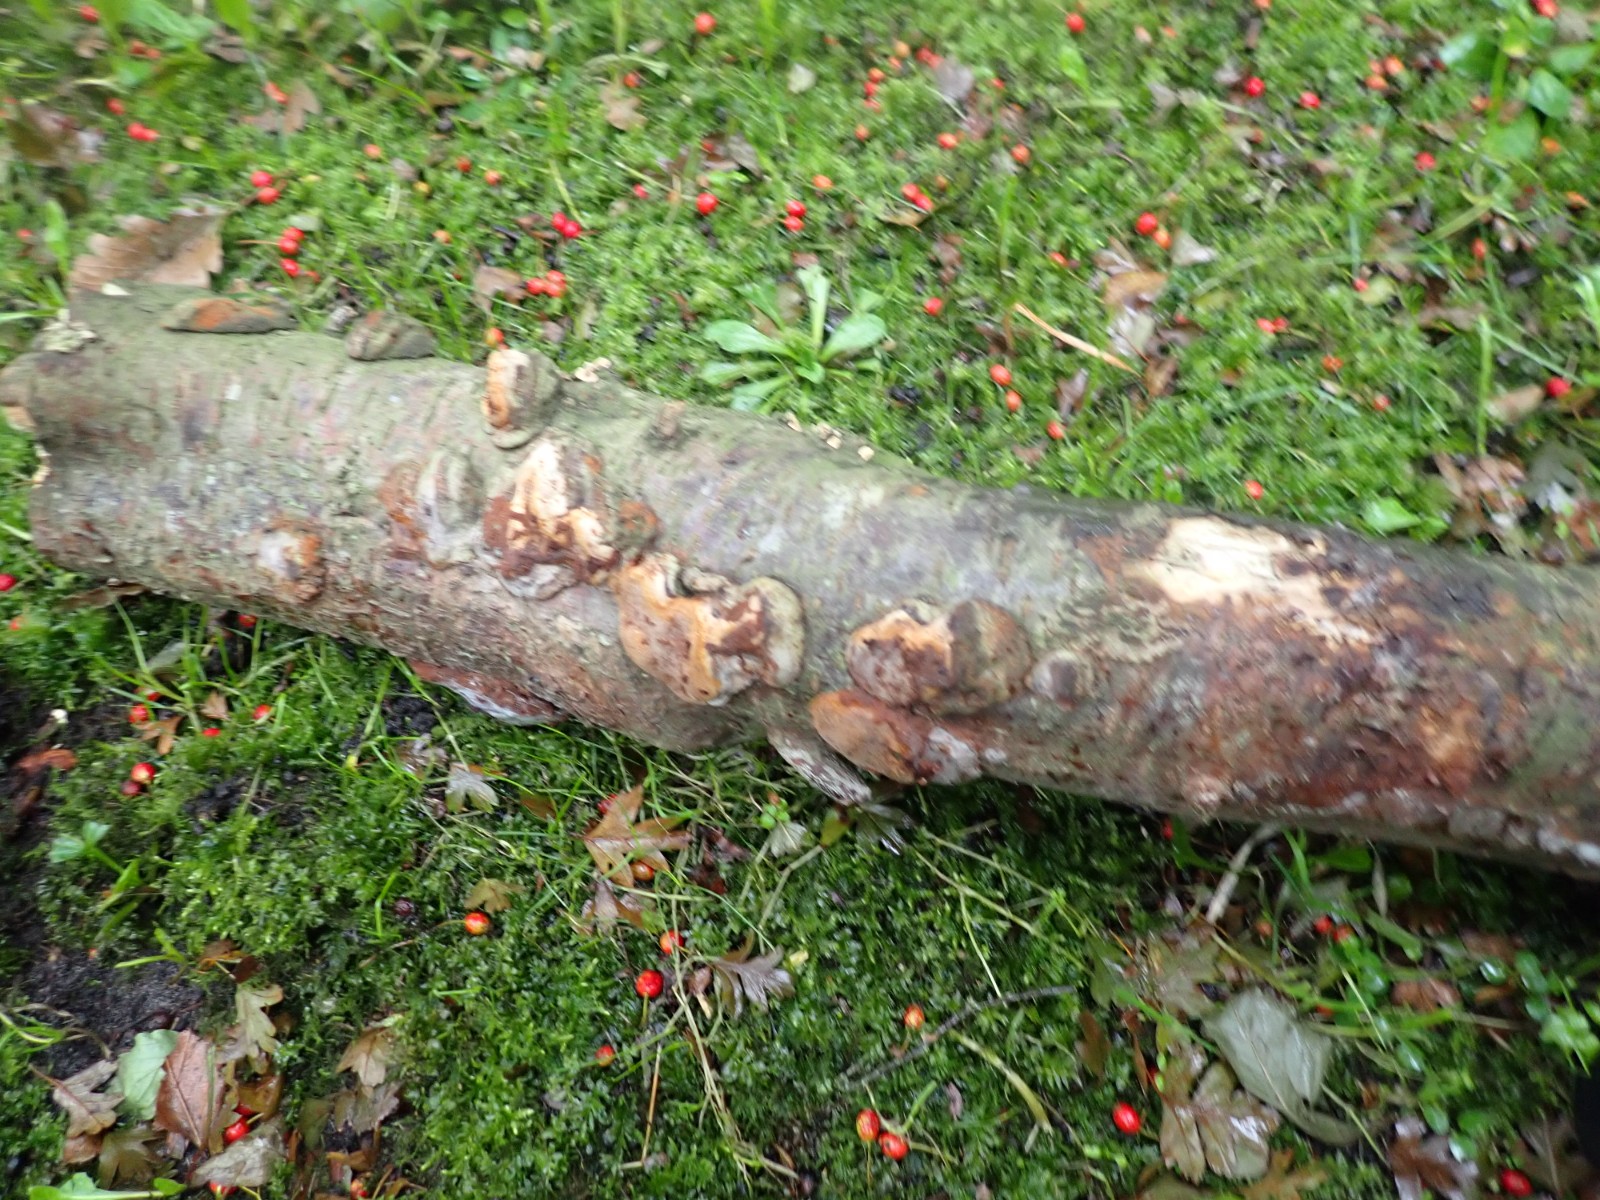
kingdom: Fungi
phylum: Basidiomycota
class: Agaricomycetes
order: Hymenochaetales
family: Hymenochaetaceae
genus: Phellinus
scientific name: Phellinus pomaceus
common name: blomme-ildporesvamp
